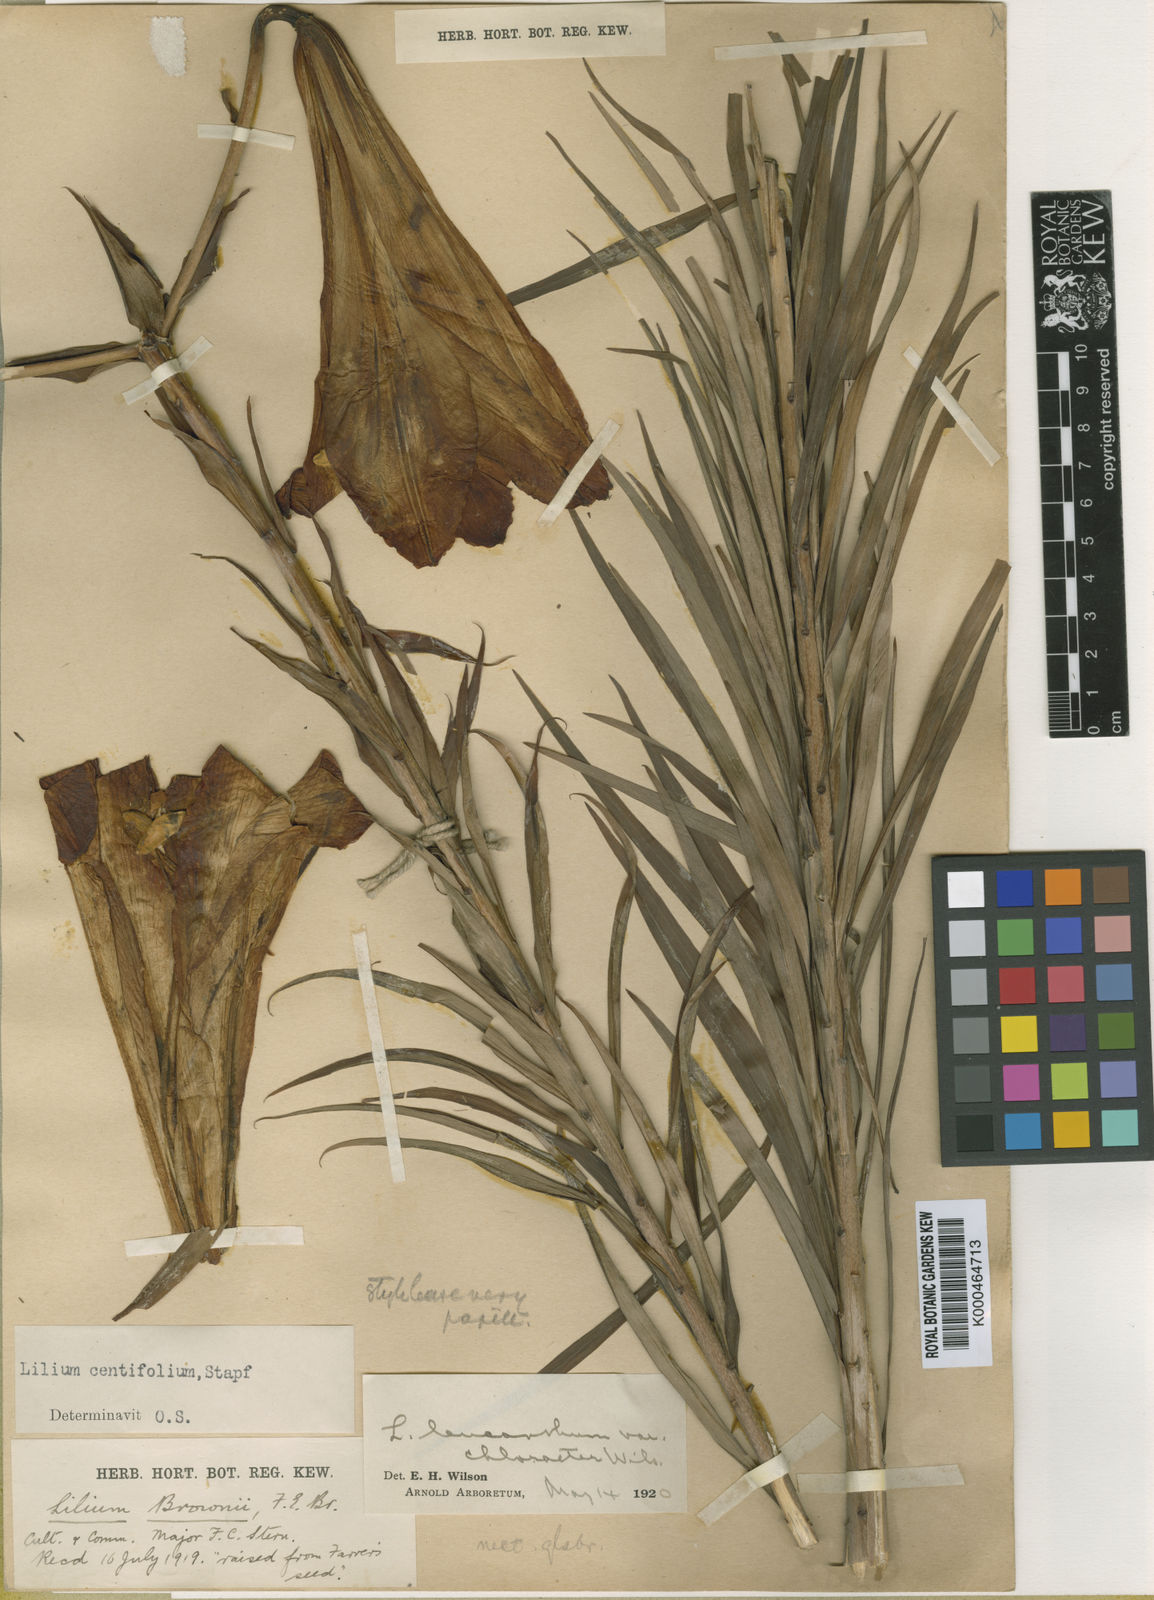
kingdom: Plantae
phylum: Tracheophyta
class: Liliopsida
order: Liliales
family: Liliaceae
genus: Lilium
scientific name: Lilium
